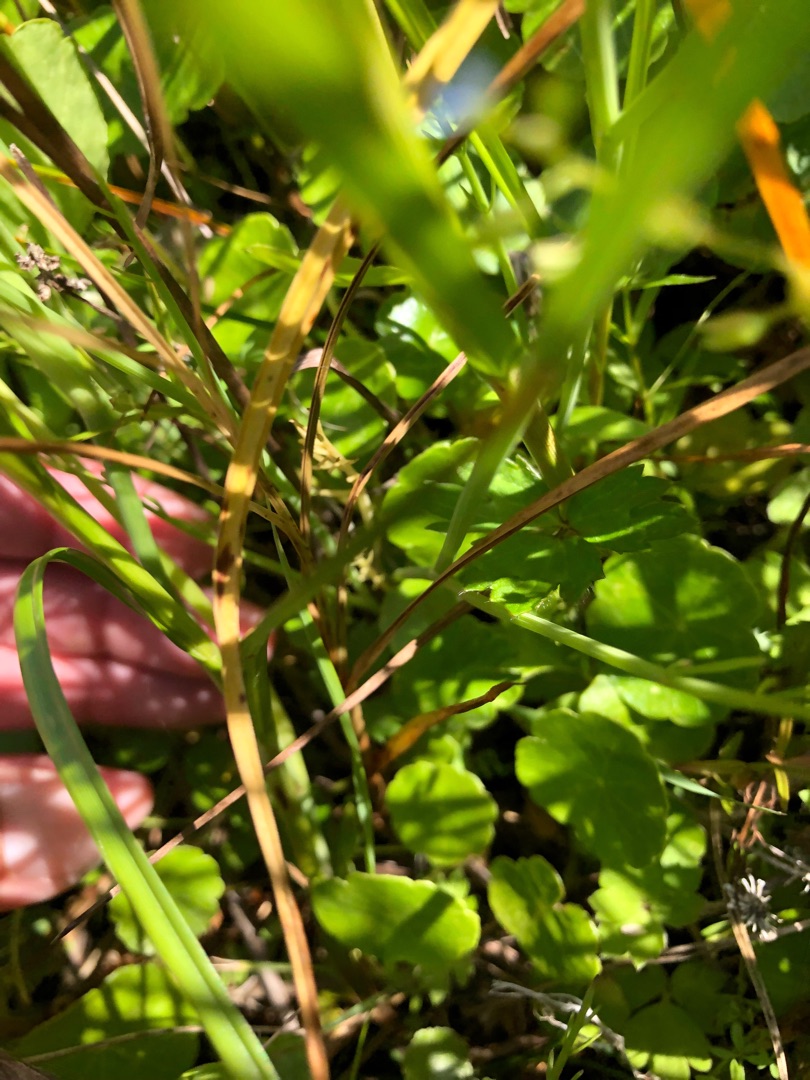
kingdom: Plantae
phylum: Tracheophyta
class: Magnoliopsida
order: Apiales
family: Araliaceae
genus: Hydrocotyle
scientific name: Hydrocotyle vulgaris
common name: Vandnavle
